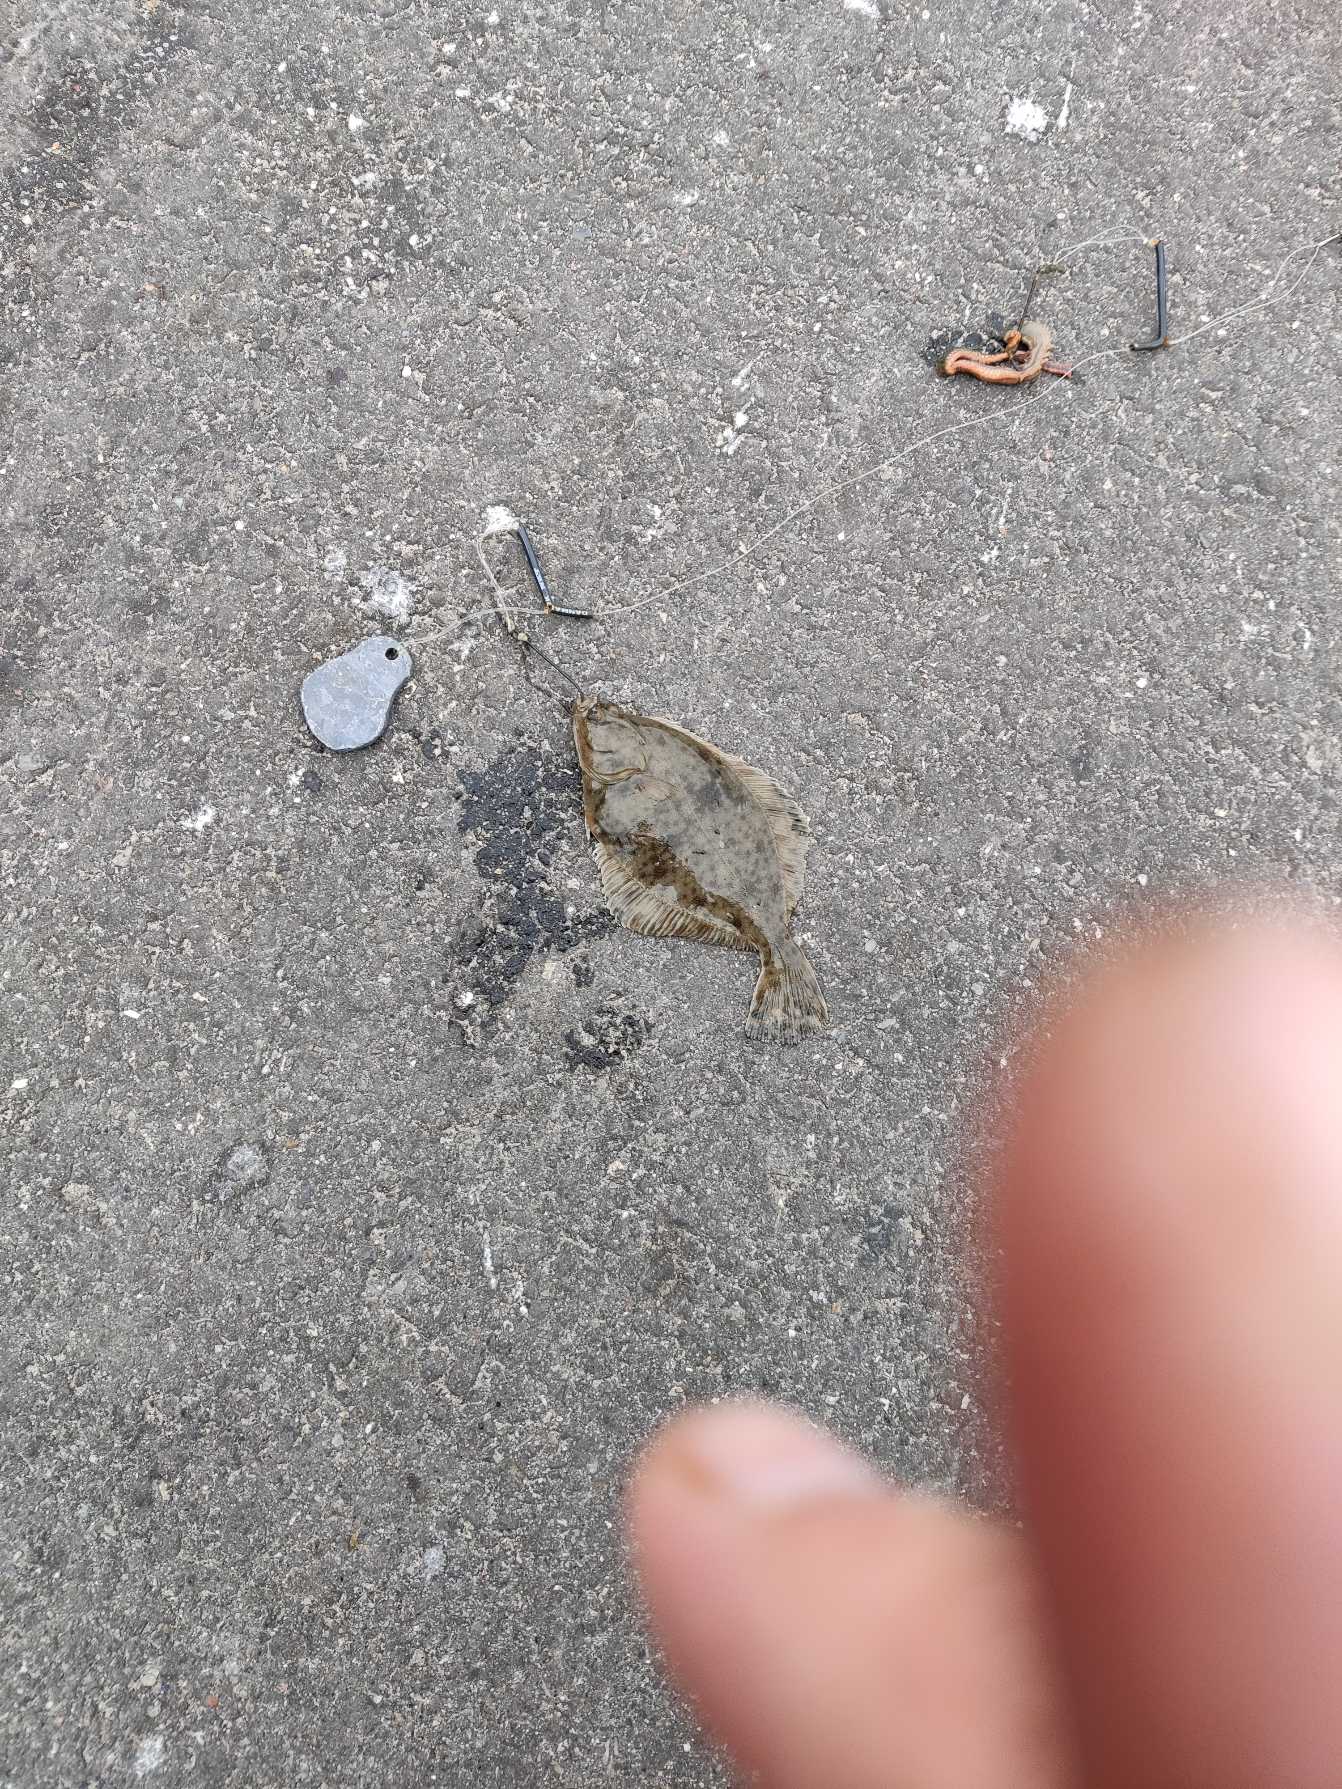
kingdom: Animalia
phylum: Chordata
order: Pleuronectiformes
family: Pleuronectidae
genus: Platichthys
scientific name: Platichthys flesus
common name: Skrubbe
